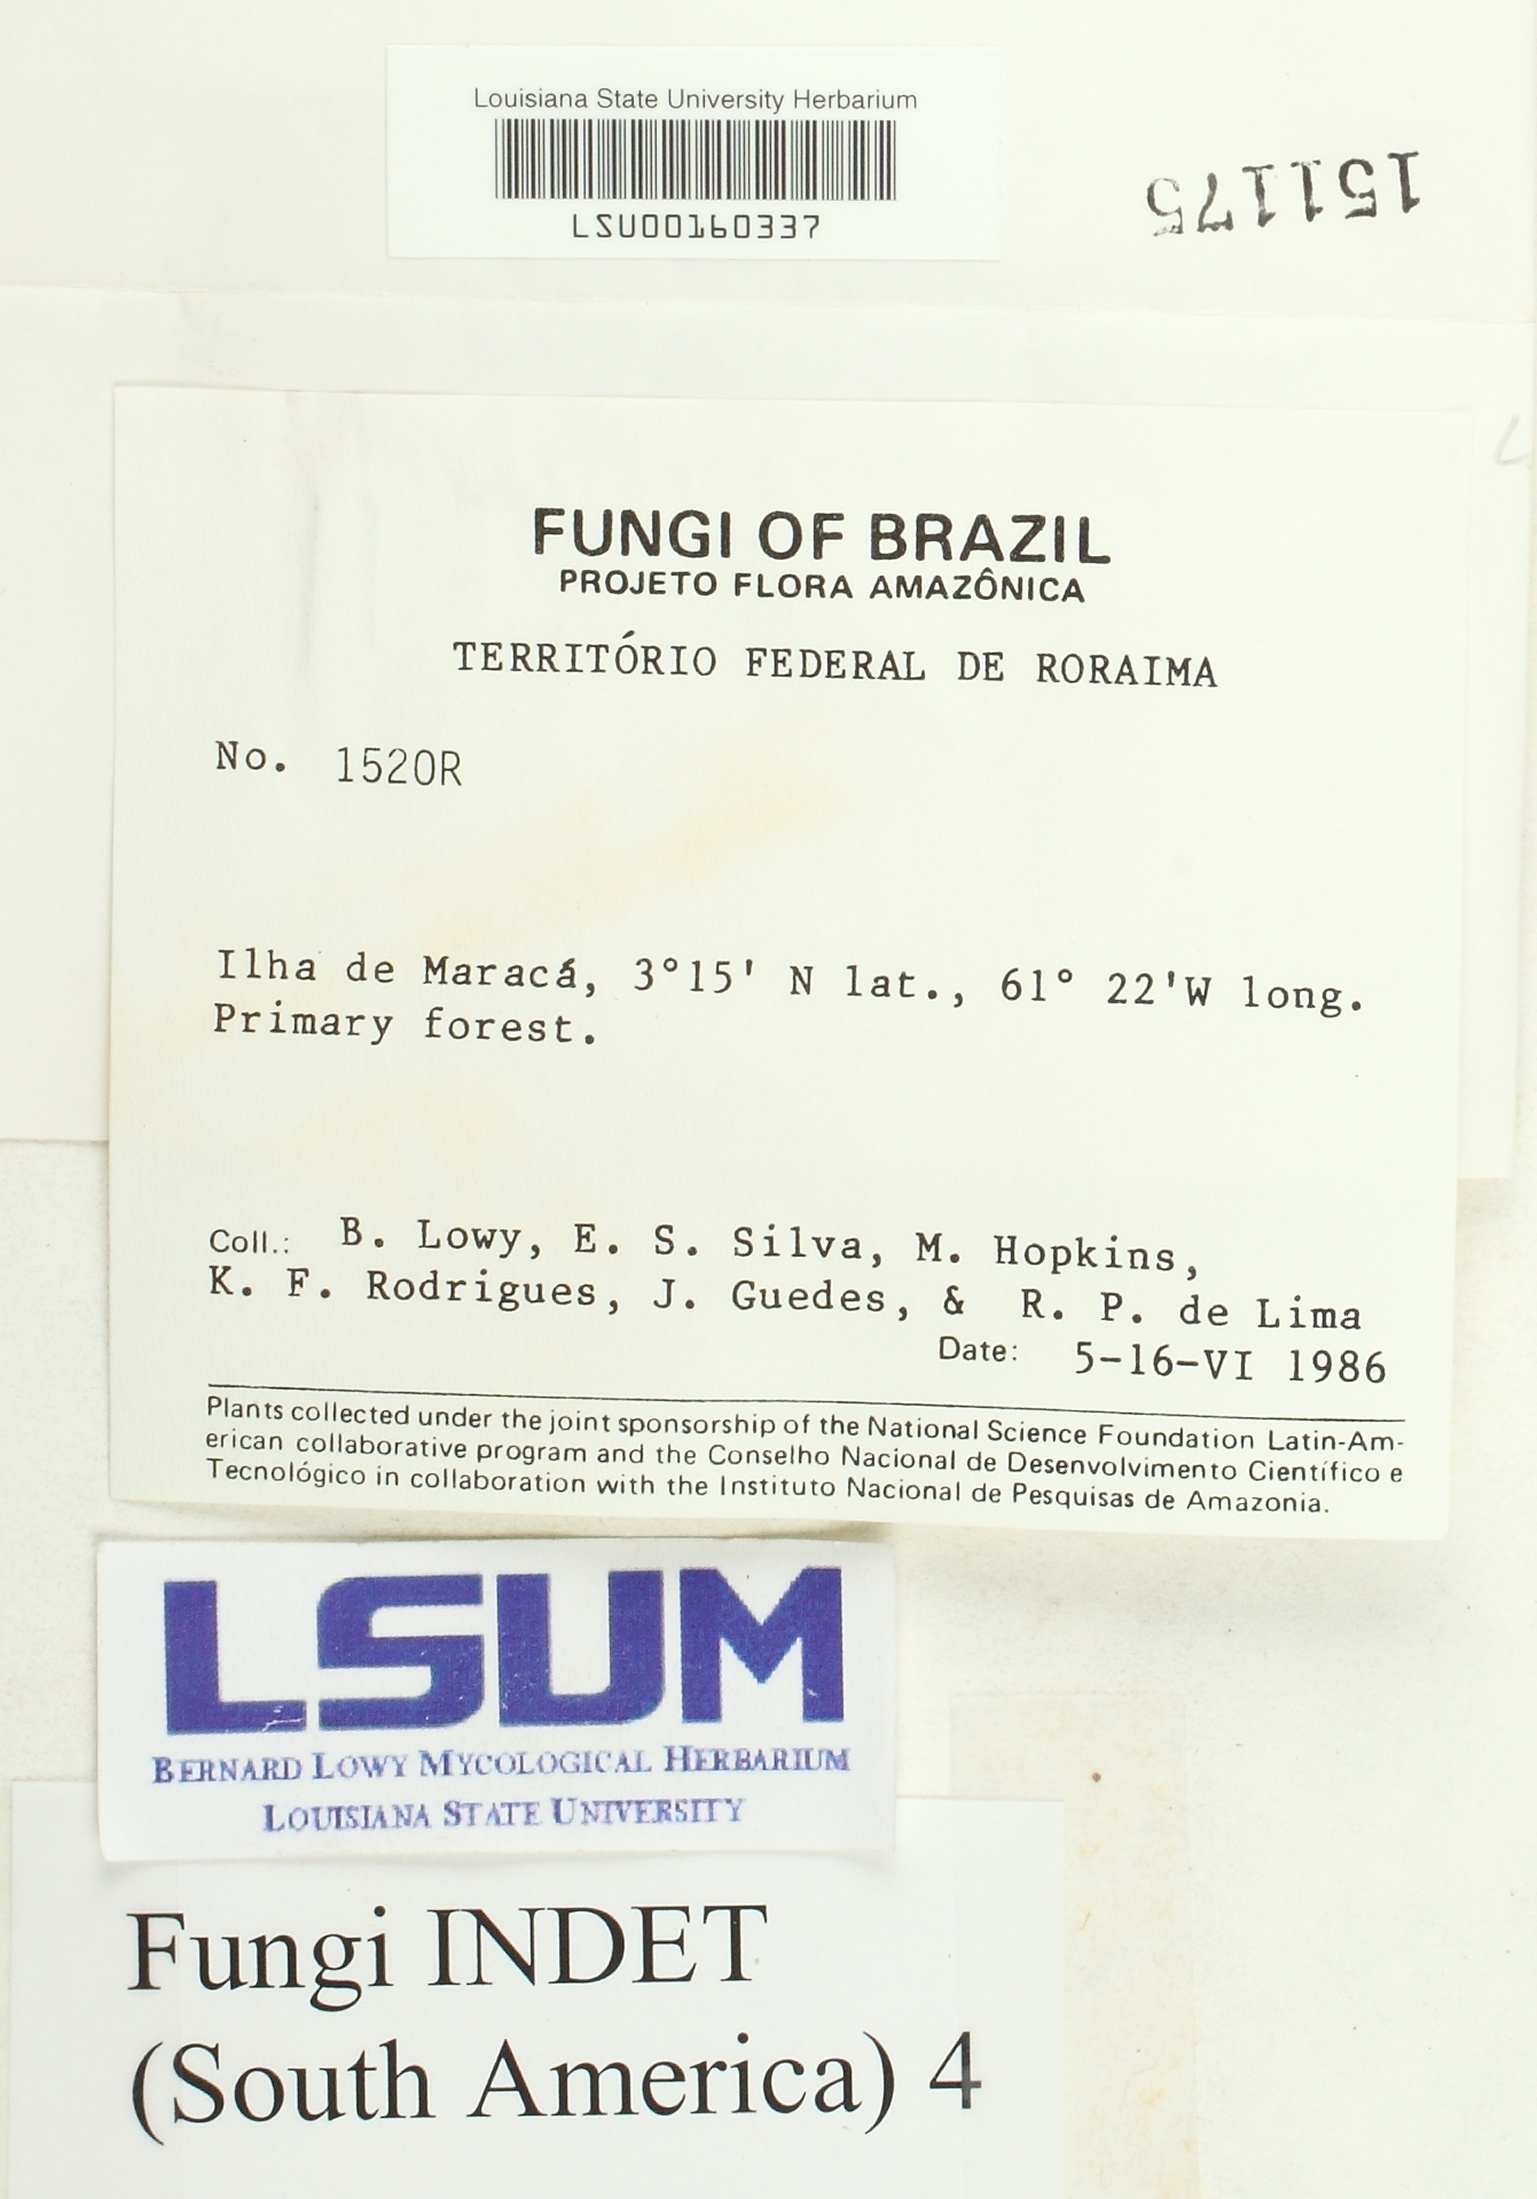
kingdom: Fungi
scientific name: Fungi
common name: Fungi
